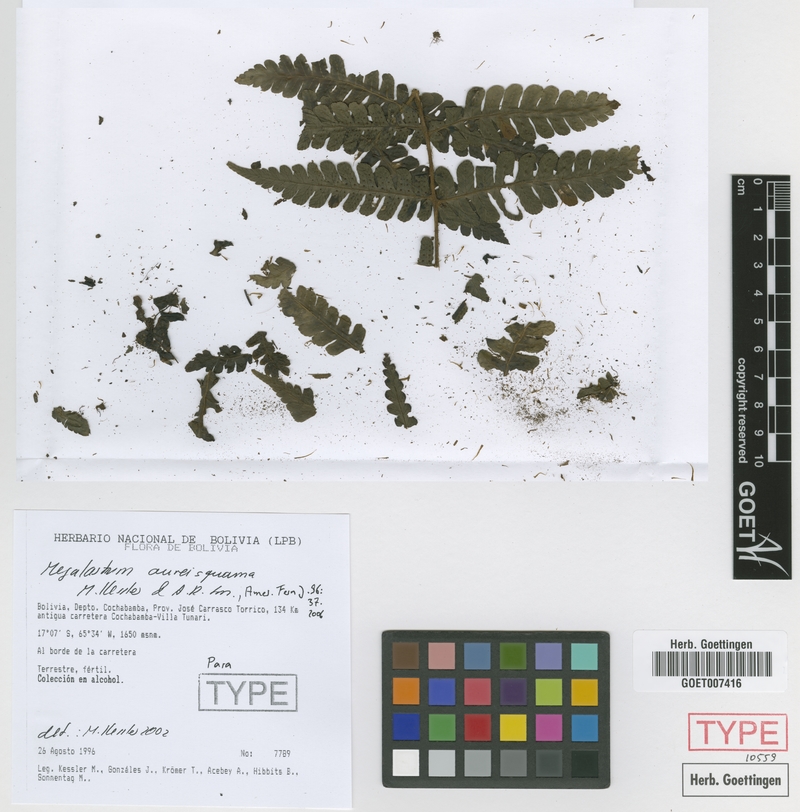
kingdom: Plantae
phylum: Tracheophyta
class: Polypodiopsida
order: Polypodiales
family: Dryopteridaceae
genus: Megalastrum
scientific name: Megalastrum aureisquama
